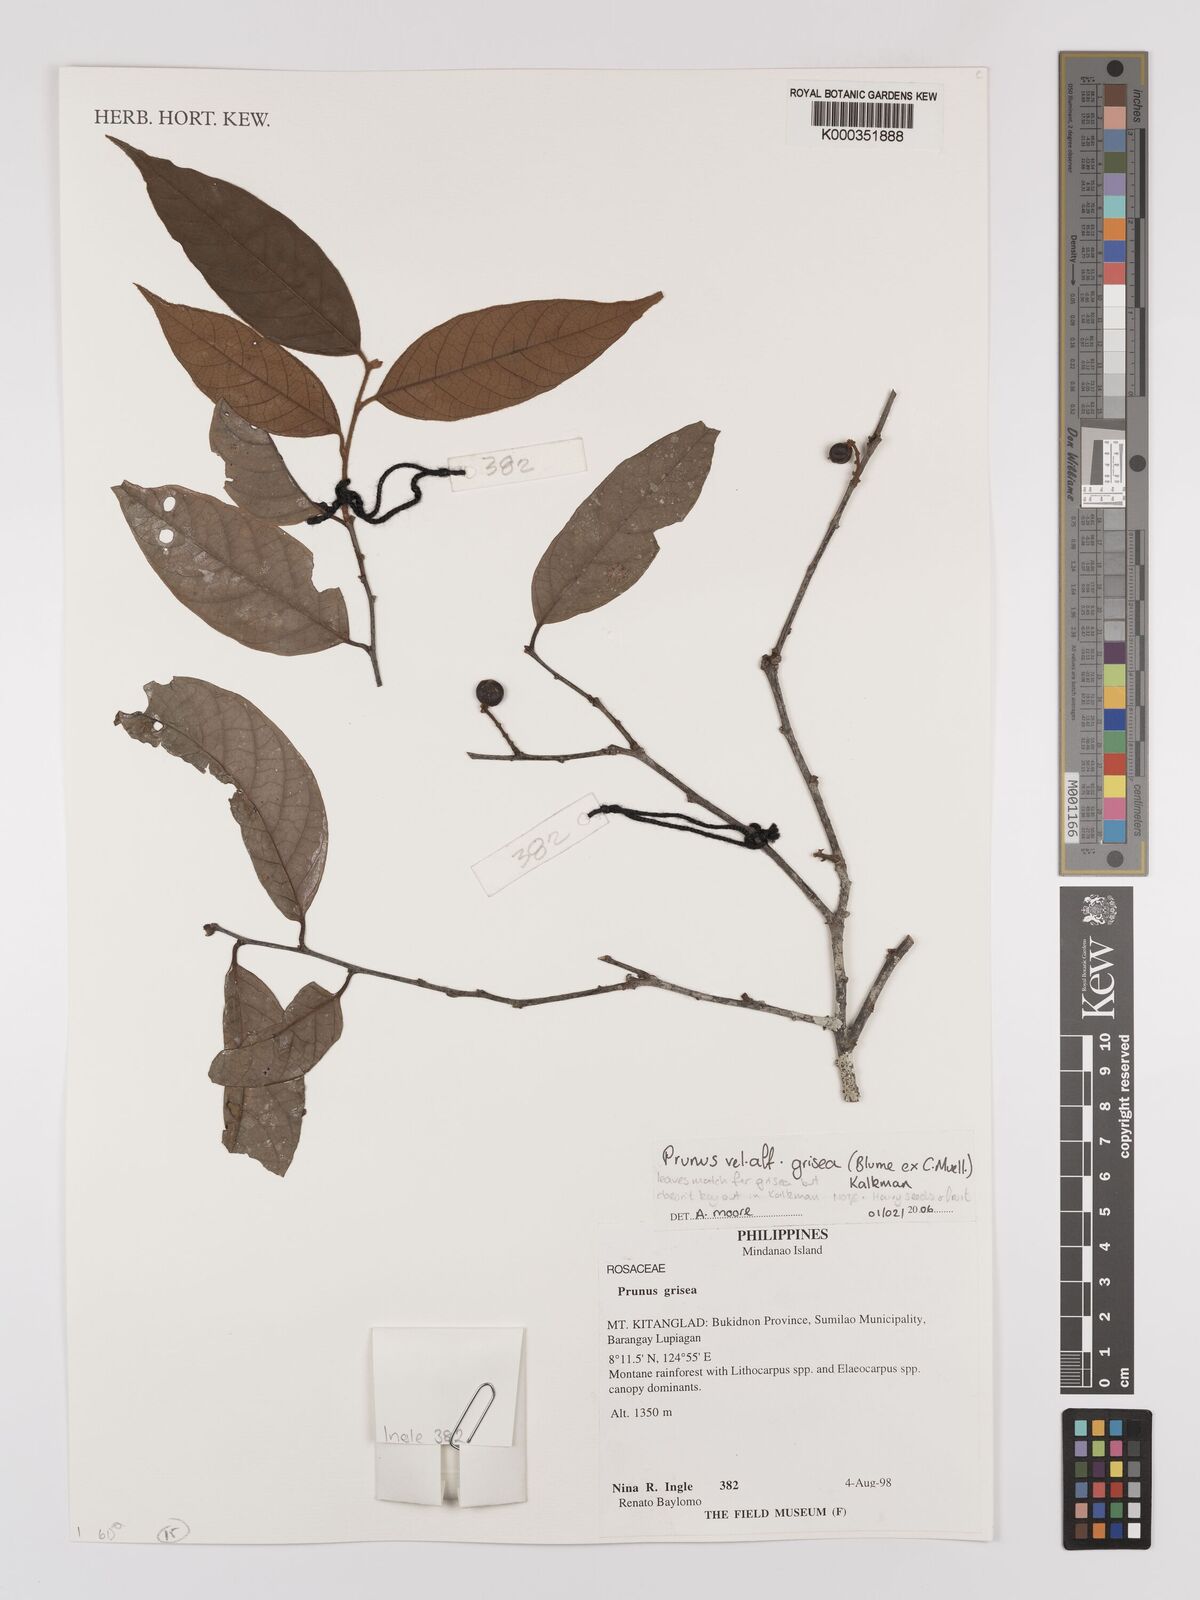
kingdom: Plantae
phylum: Tracheophyta
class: Magnoliopsida
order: Rosales
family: Rosaceae
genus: Prunus
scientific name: Prunus
